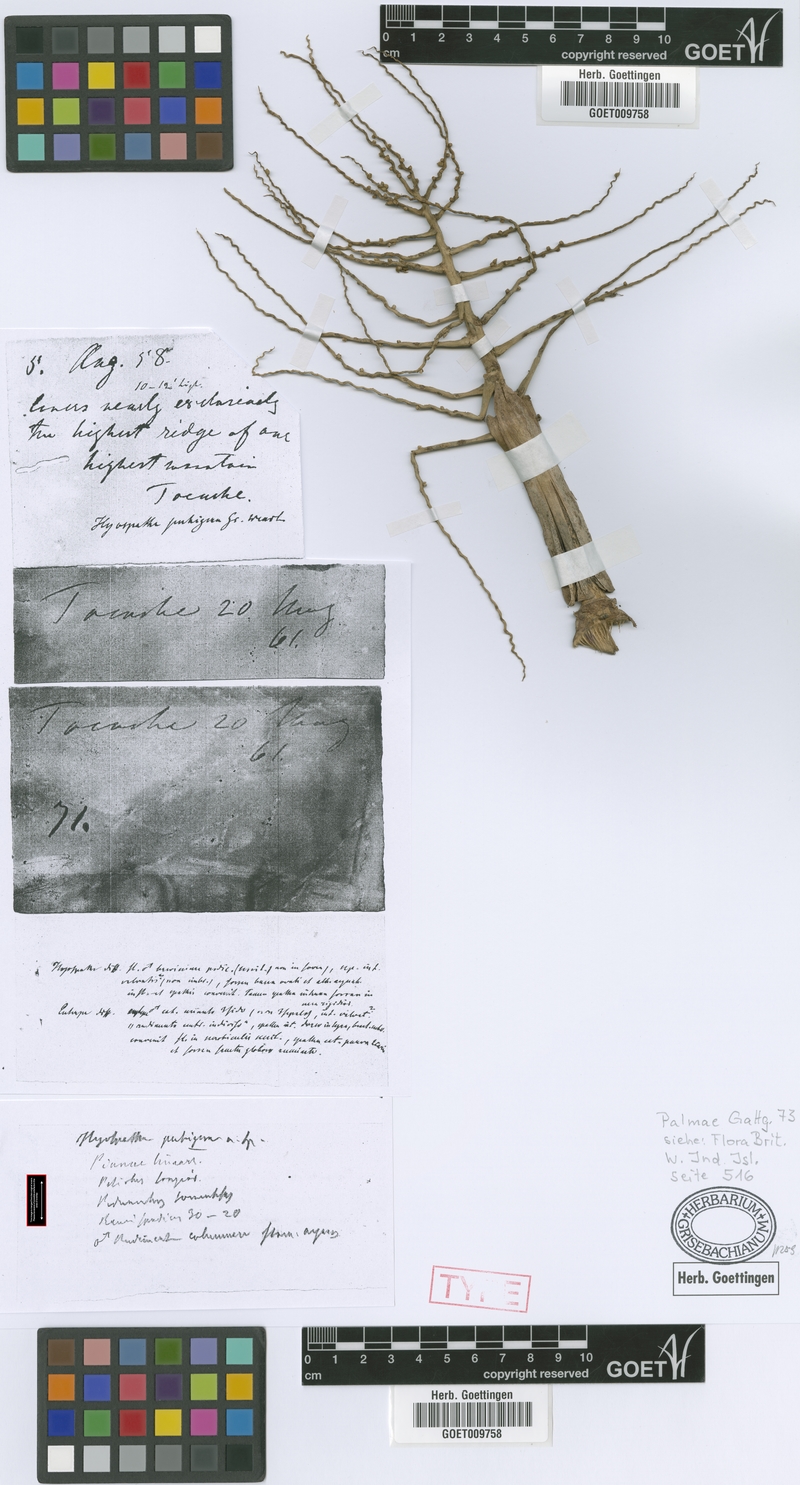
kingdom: Plantae
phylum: Tracheophyta
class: Liliopsida
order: Arecales
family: Arecaceae
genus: Prestoea
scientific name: Prestoea pubigera
